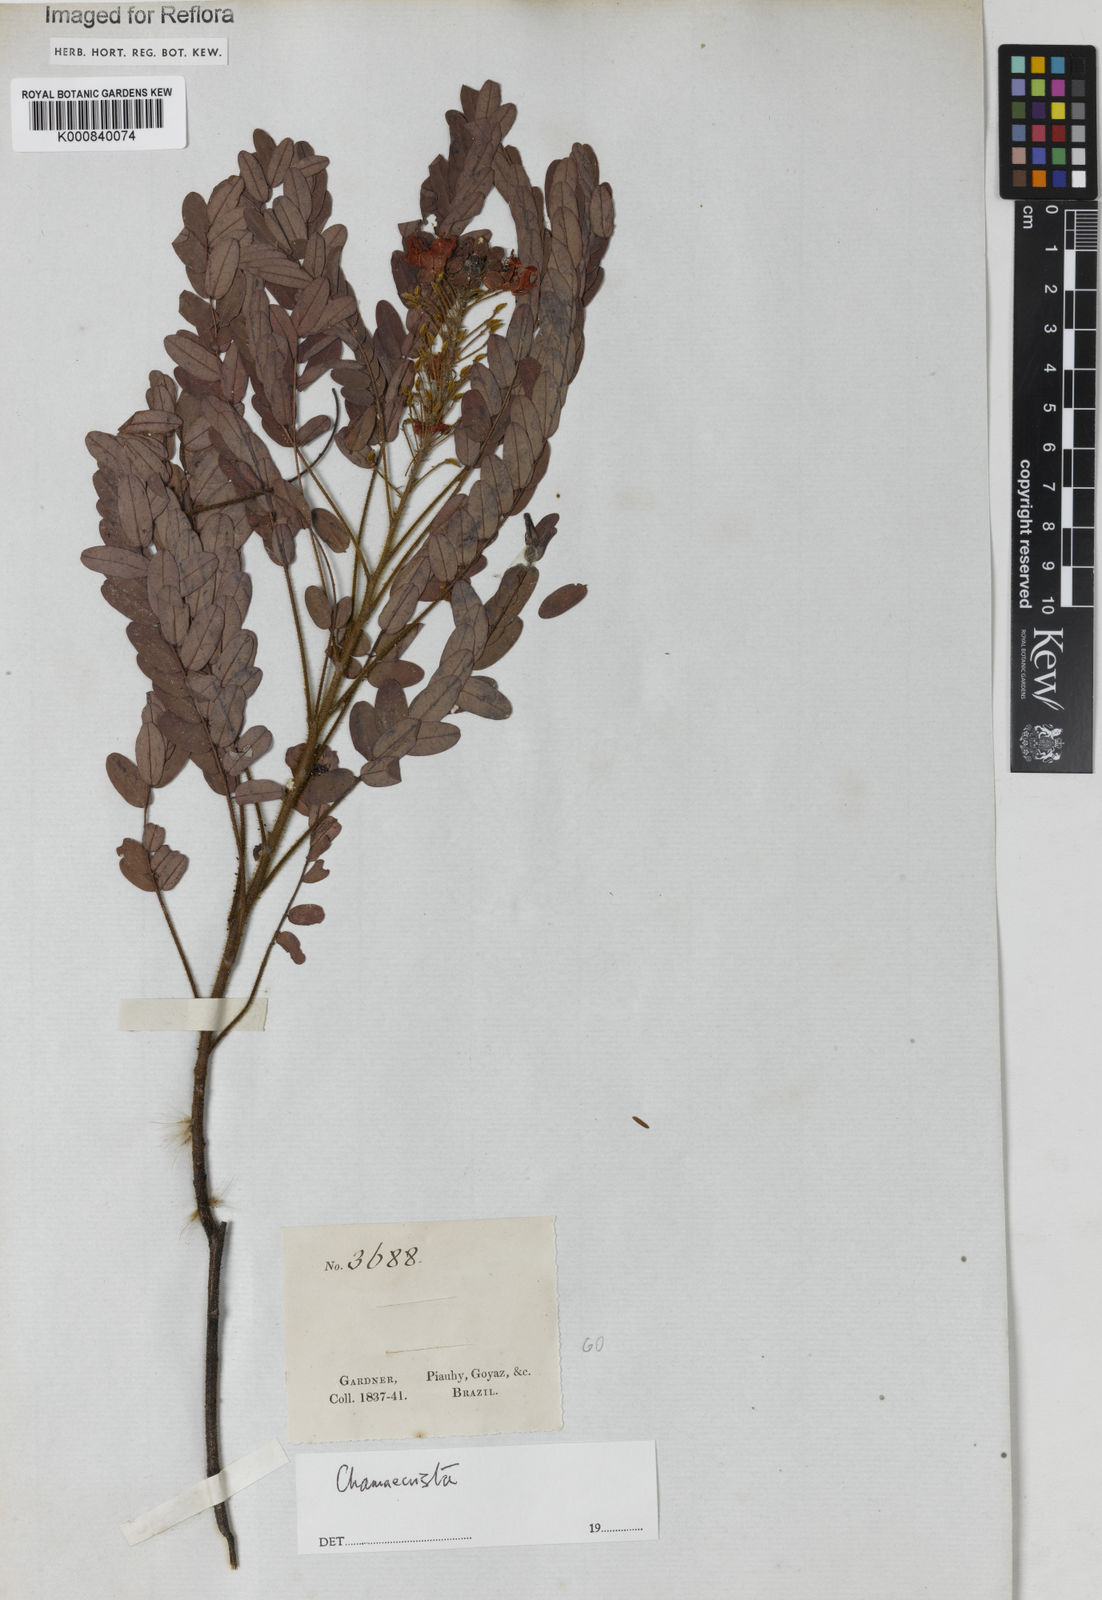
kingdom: Plantae
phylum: Tracheophyta
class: Magnoliopsida
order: Fabales
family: Fabaceae
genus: Chamaecrista
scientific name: Chamaecrista
